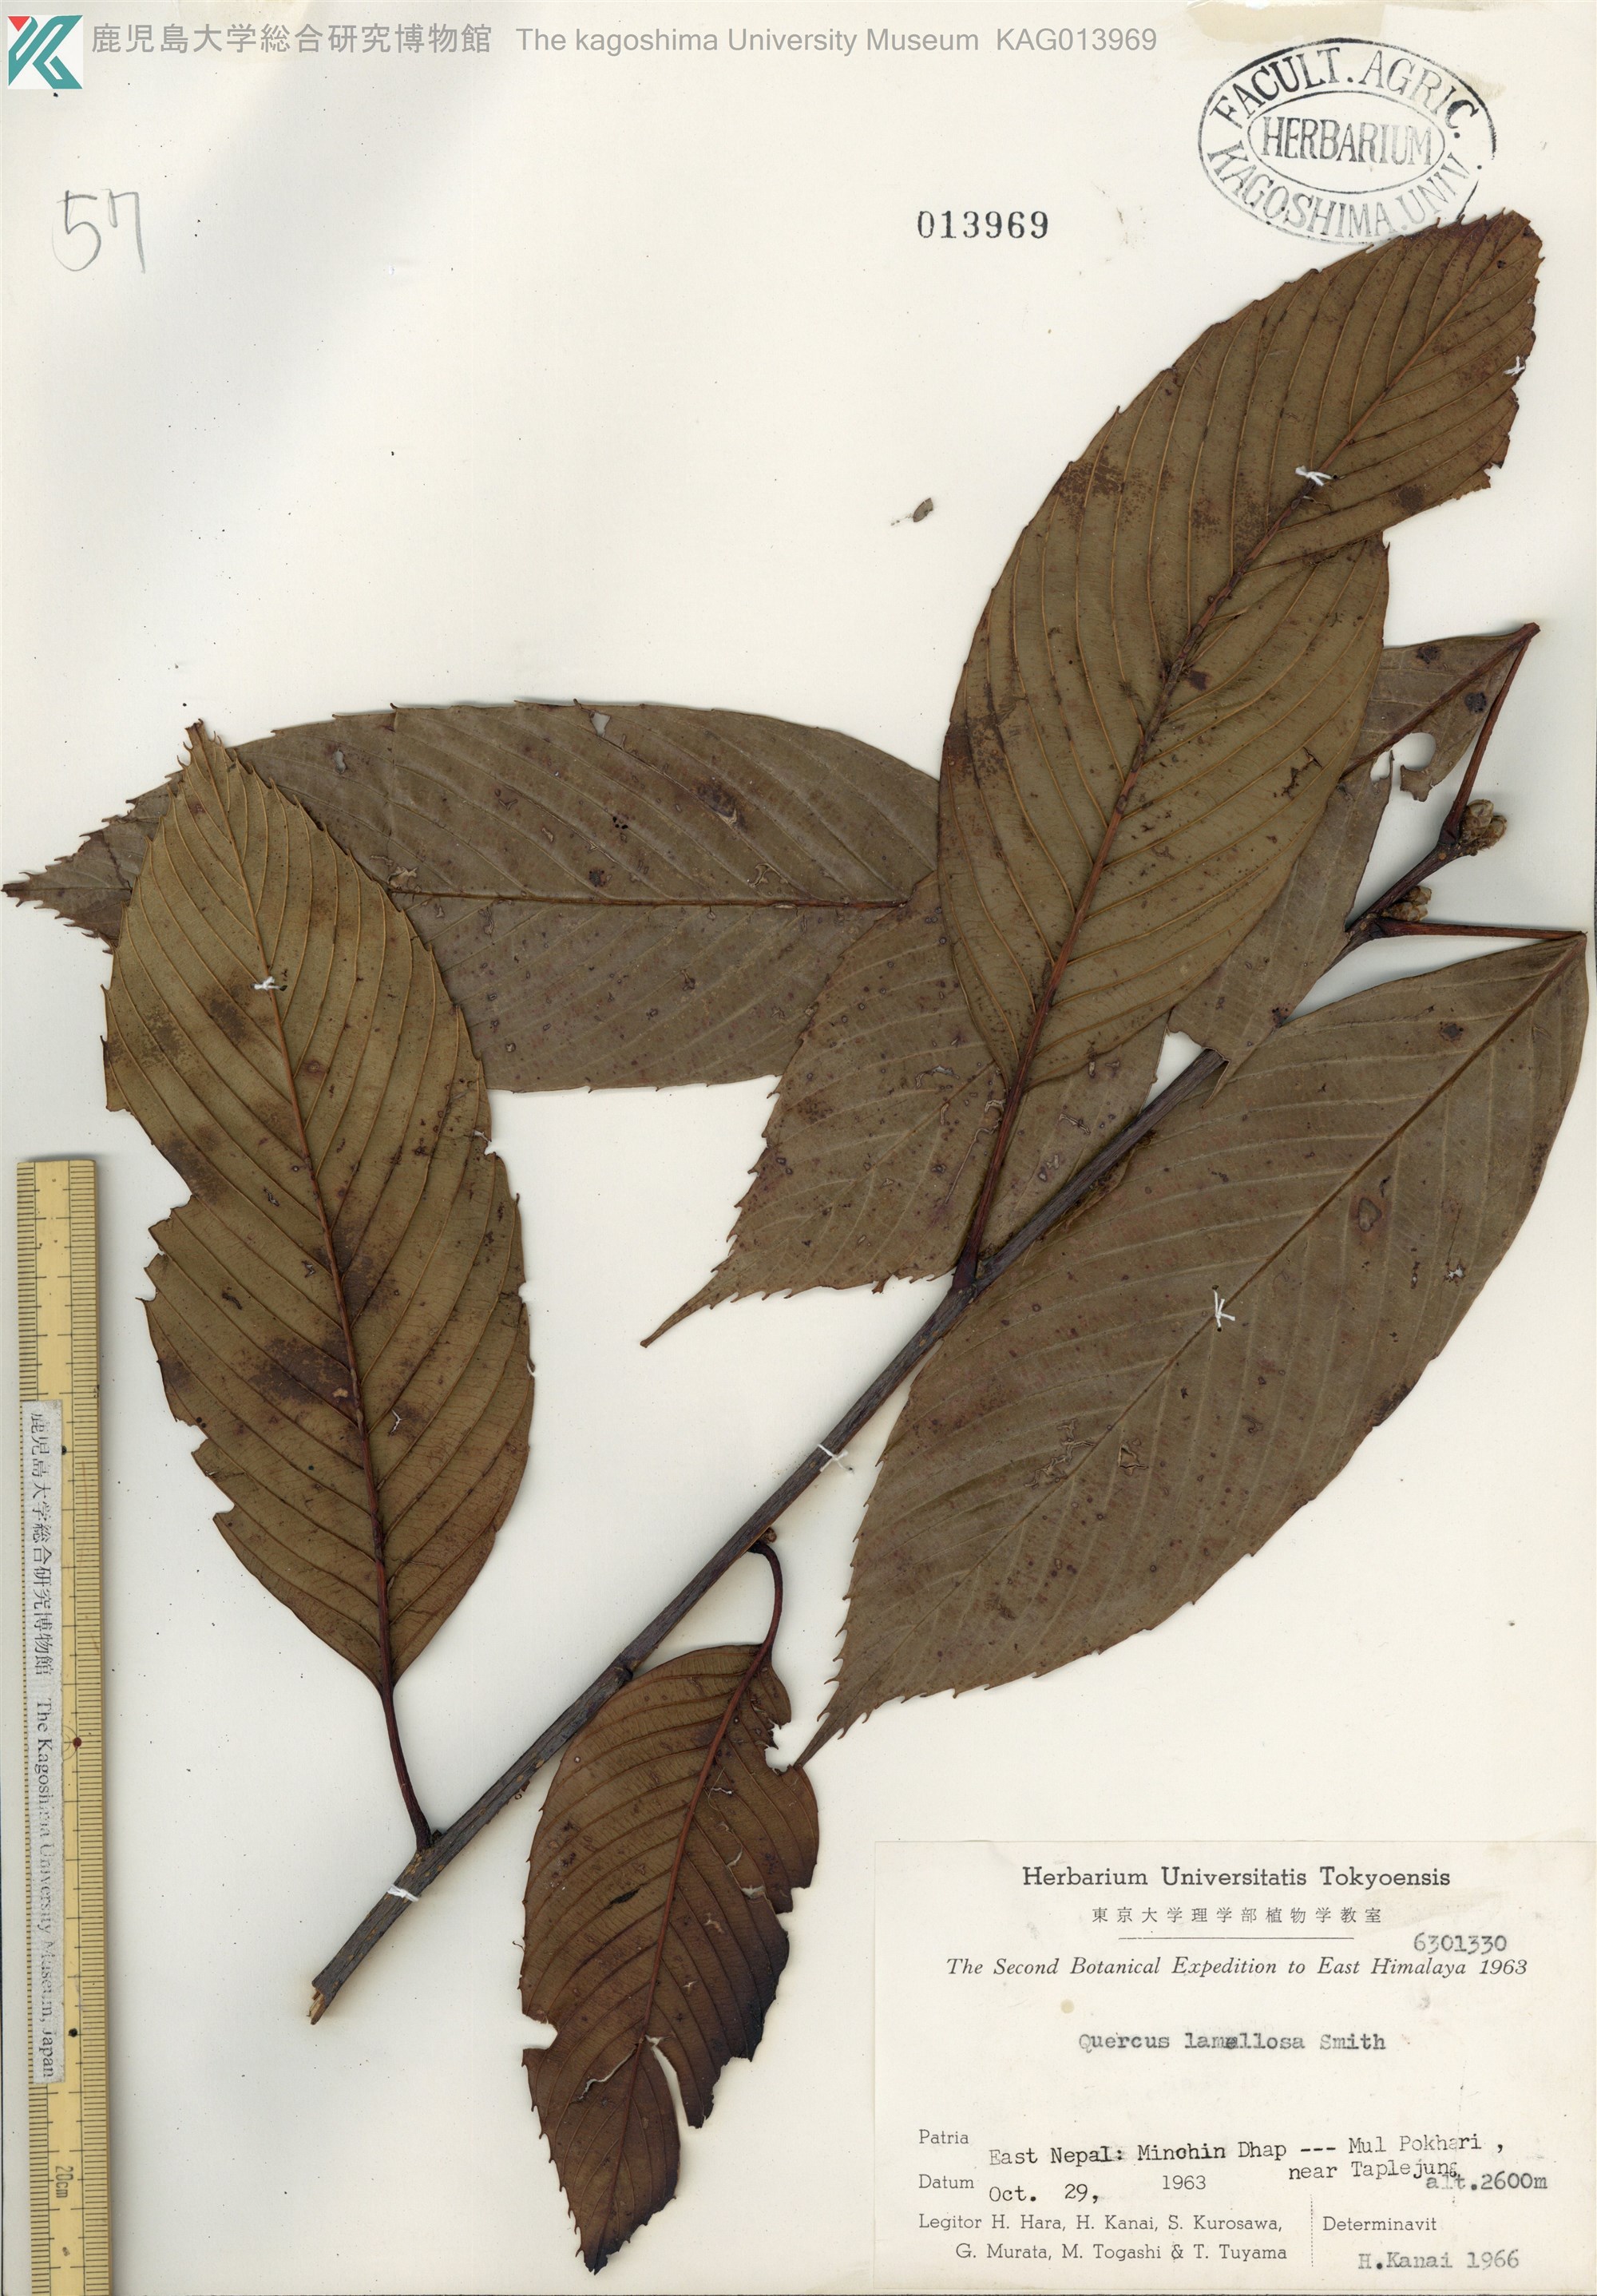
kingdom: Plantae
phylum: Tracheophyta
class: Magnoliopsida
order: Fagales
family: Fagaceae
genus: Quercus
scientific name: Quercus lamellosa
